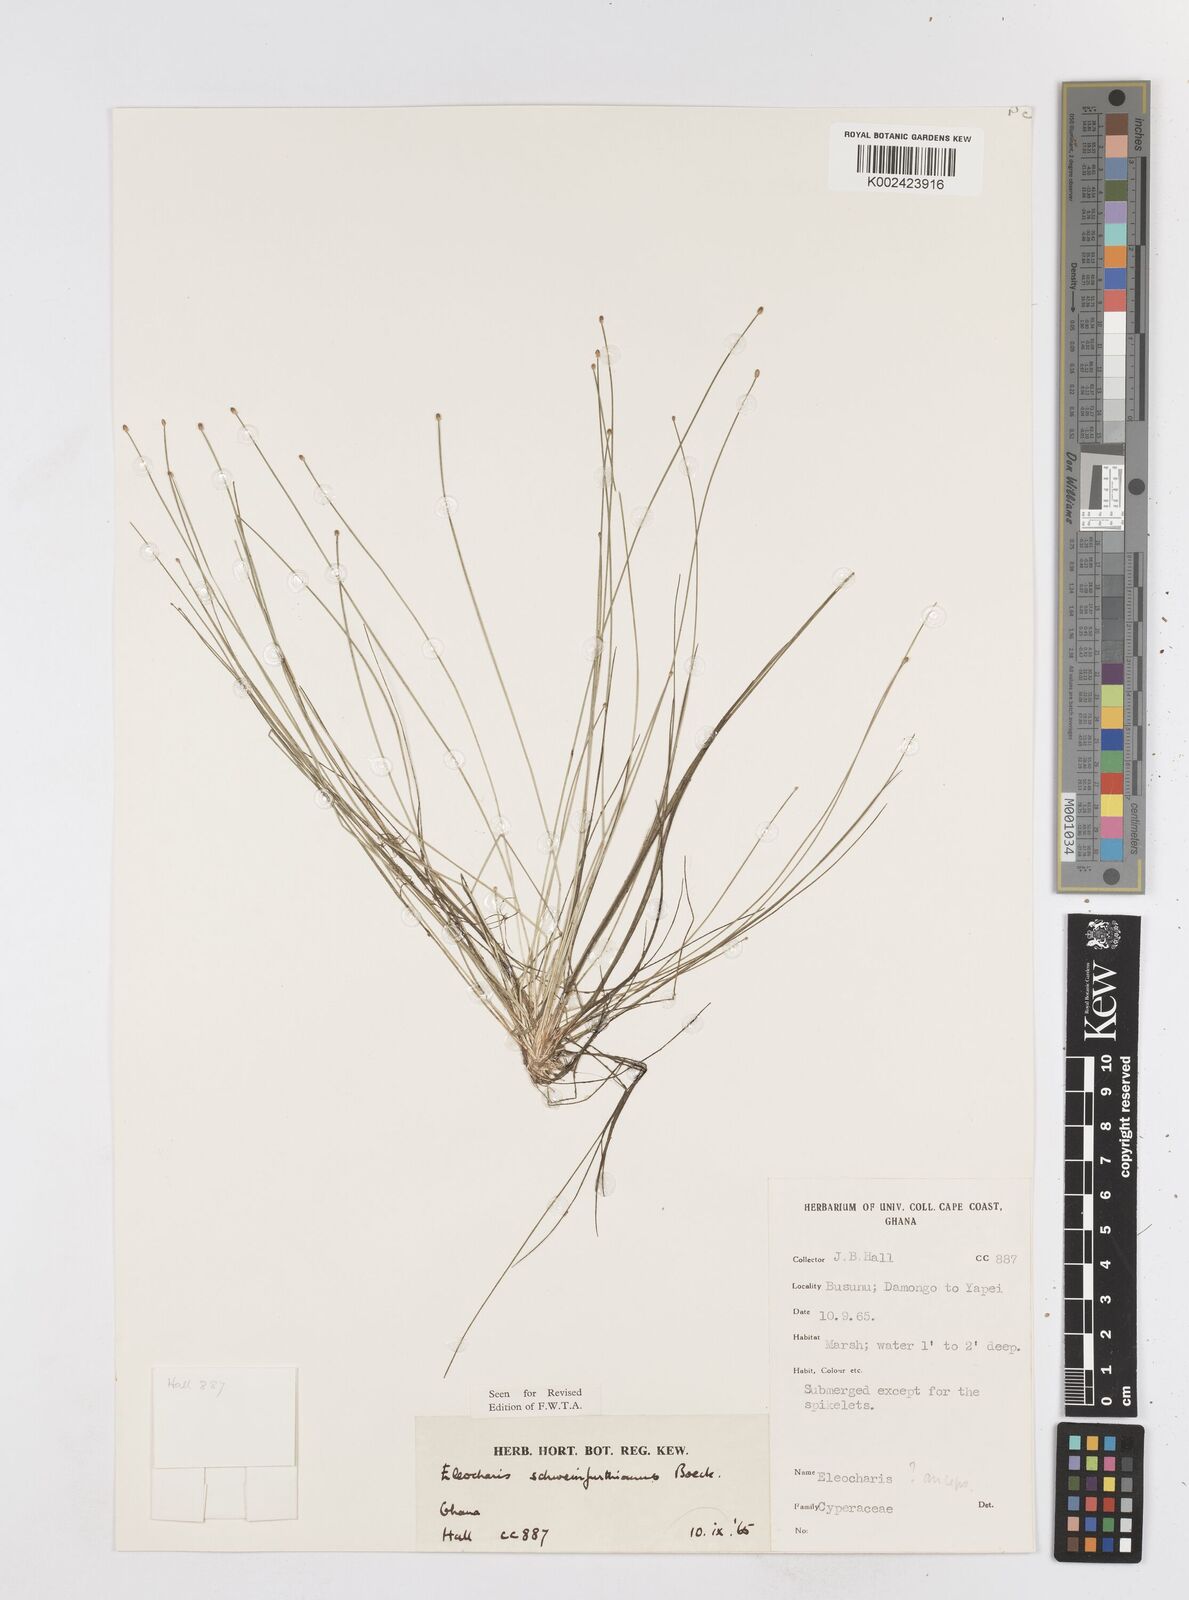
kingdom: Plantae
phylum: Tracheophyta
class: Liliopsida
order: Poales
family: Cyperaceae
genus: Eleocharis
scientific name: Eleocharis setifolia
